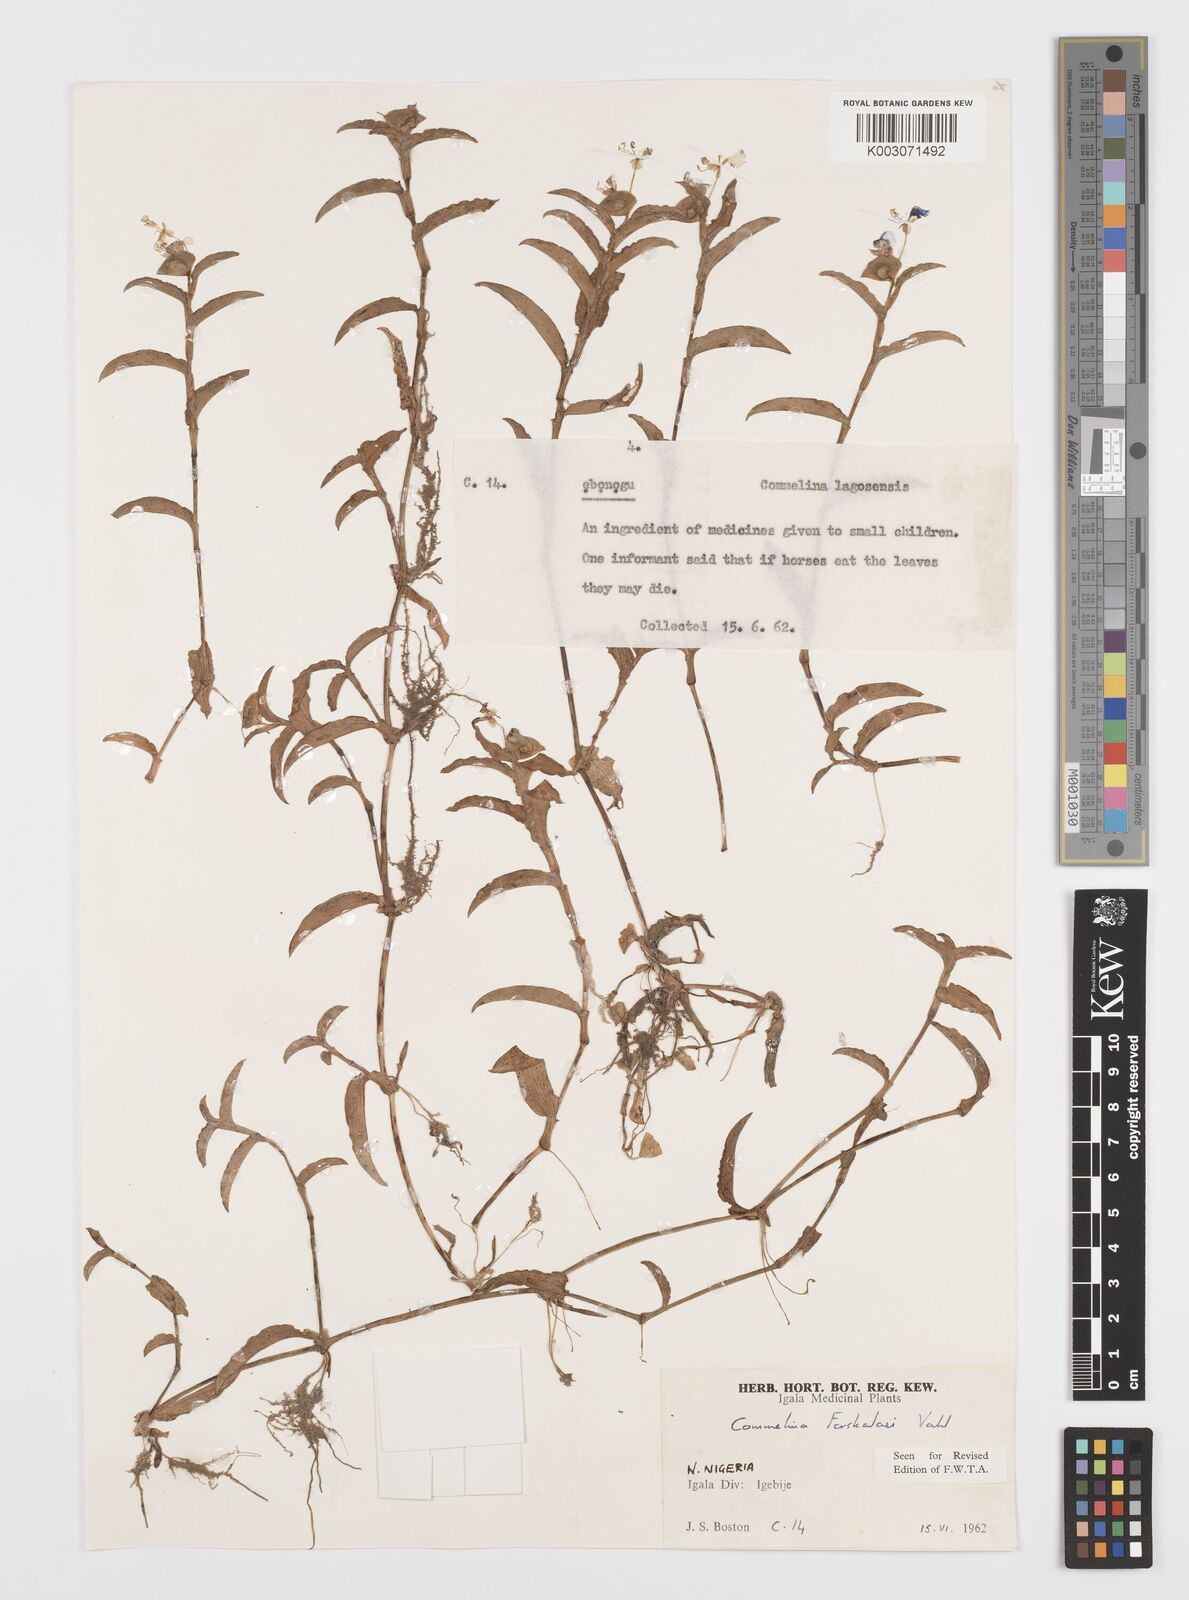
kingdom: Plantae
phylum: Tracheophyta
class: Liliopsida
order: Commelinales
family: Commelinaceae
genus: Commelina
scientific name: Commelina forskaolii
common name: Rat's ear
